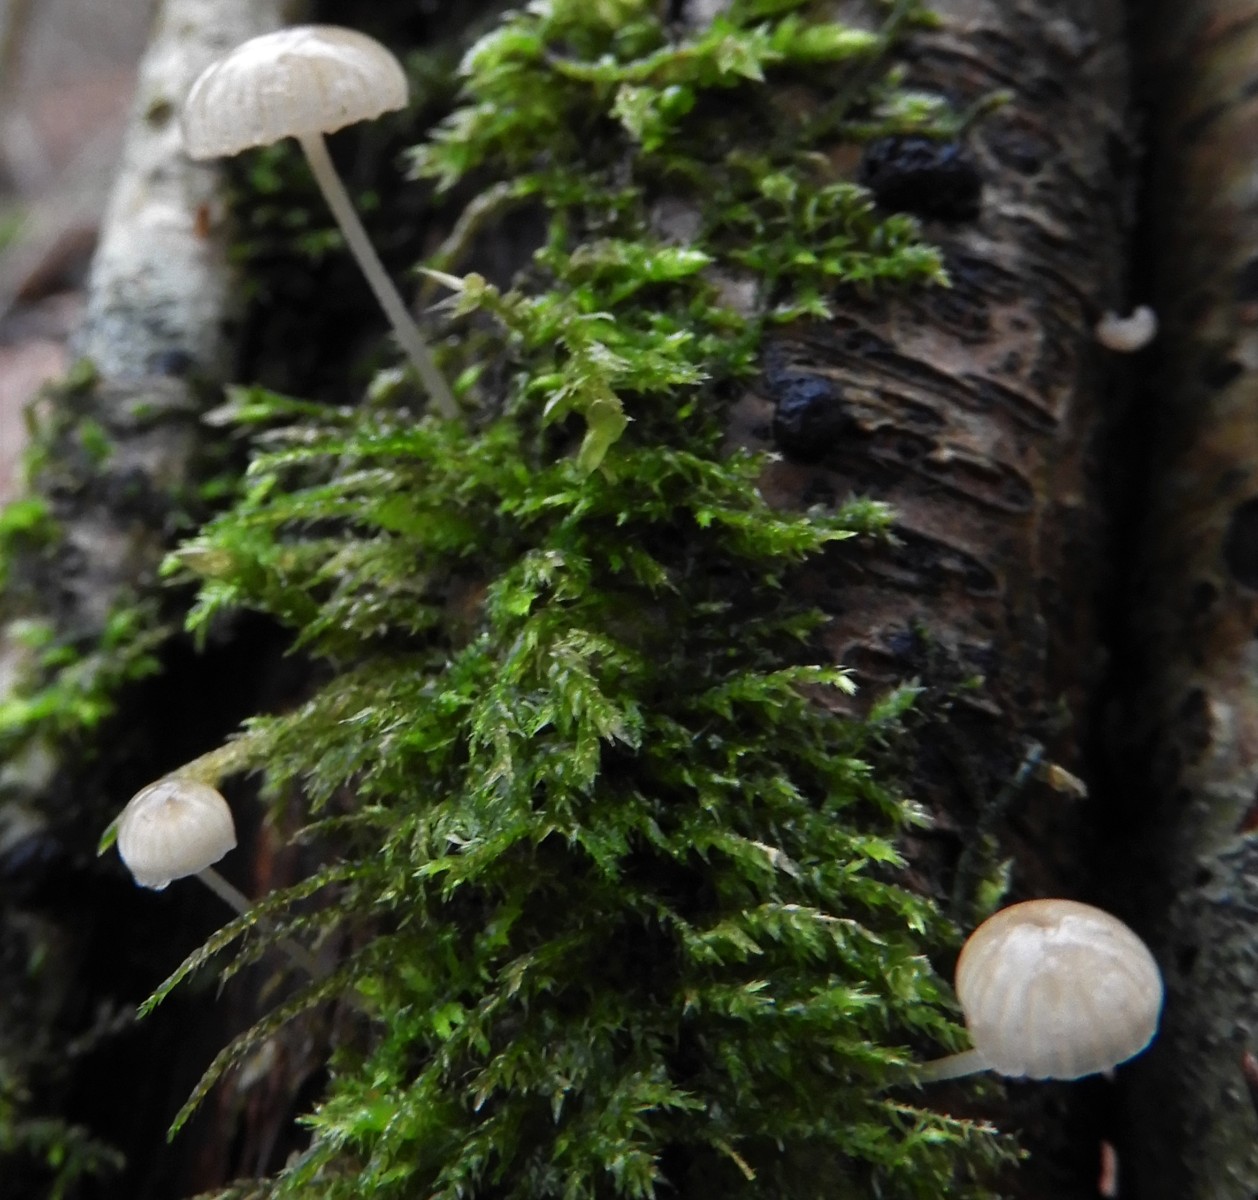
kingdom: Fungi
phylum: Basidiomycota
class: Agaricomycetes
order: Agaricales
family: Porotheleaceae
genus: Phloeomana
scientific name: Phloeomana speirea
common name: kvist-huesvamp
